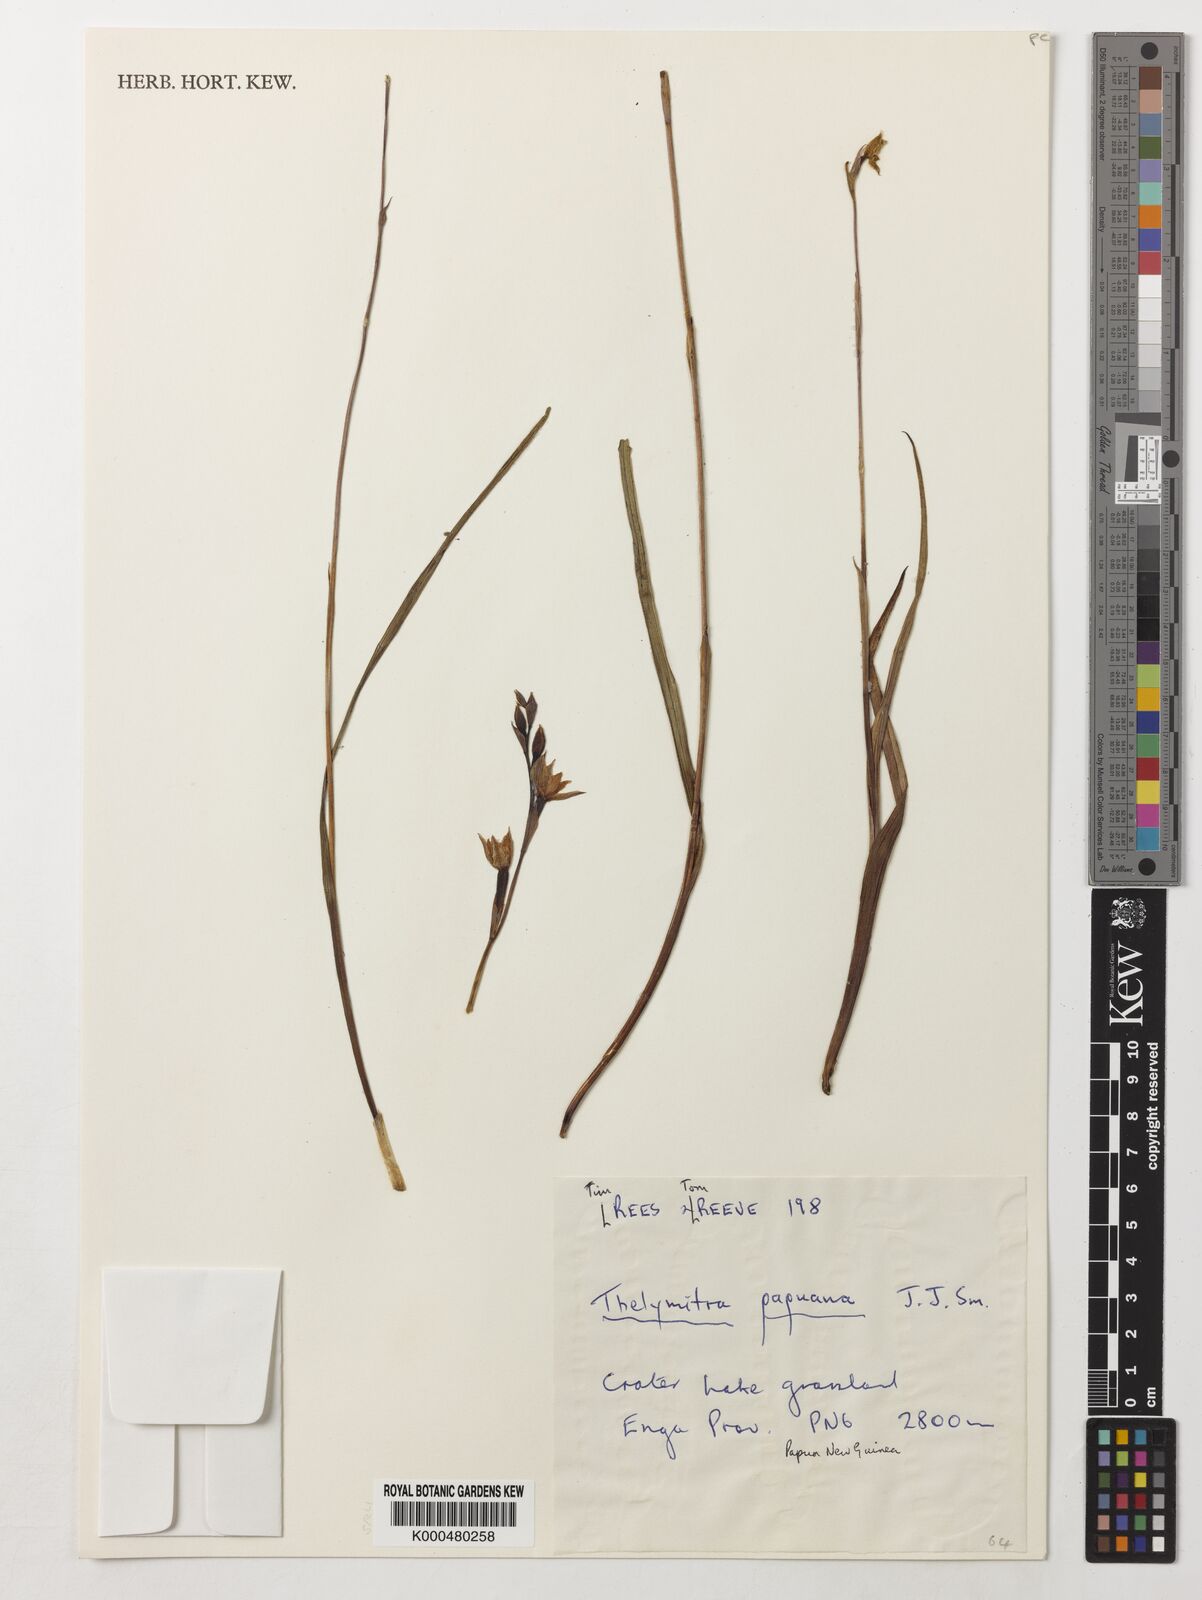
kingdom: Plantae
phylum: Tracheophyta
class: Liliopsida
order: Asparagales
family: Orchidaceae
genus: Thelymitra
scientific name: Thelymitra papuana
